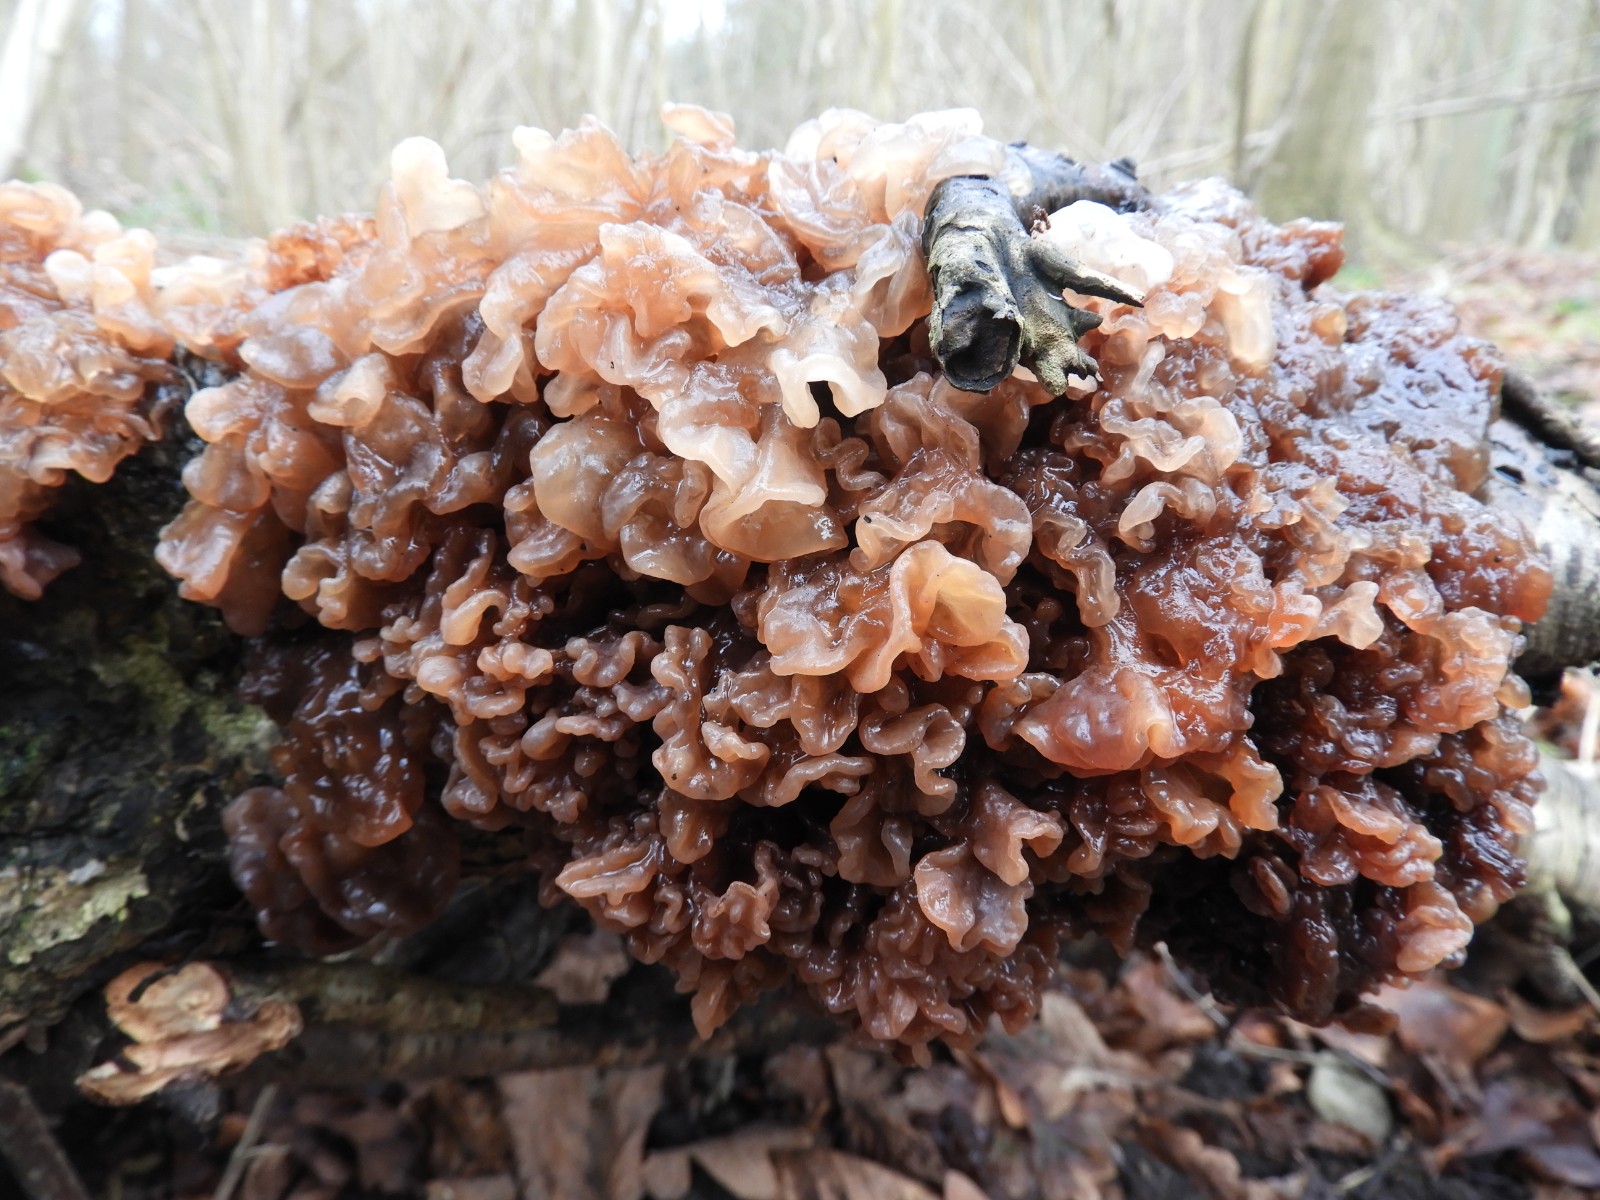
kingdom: Fungi
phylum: Basidiomycota
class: Tremellomycetes
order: Tremellales
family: Tremellaceae
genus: Phaeotremella
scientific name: Phaeotremella frondosa
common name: kæmpe-bævresvamp
